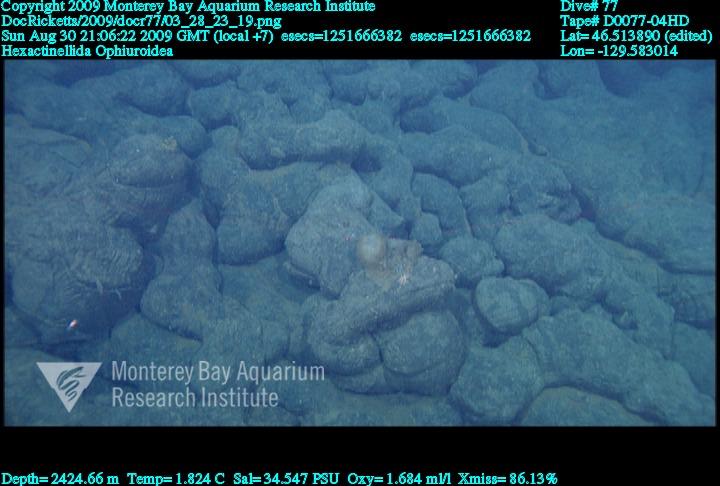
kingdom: Animalia
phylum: Porifera
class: Hexactinellida
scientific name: Hexactinellida
